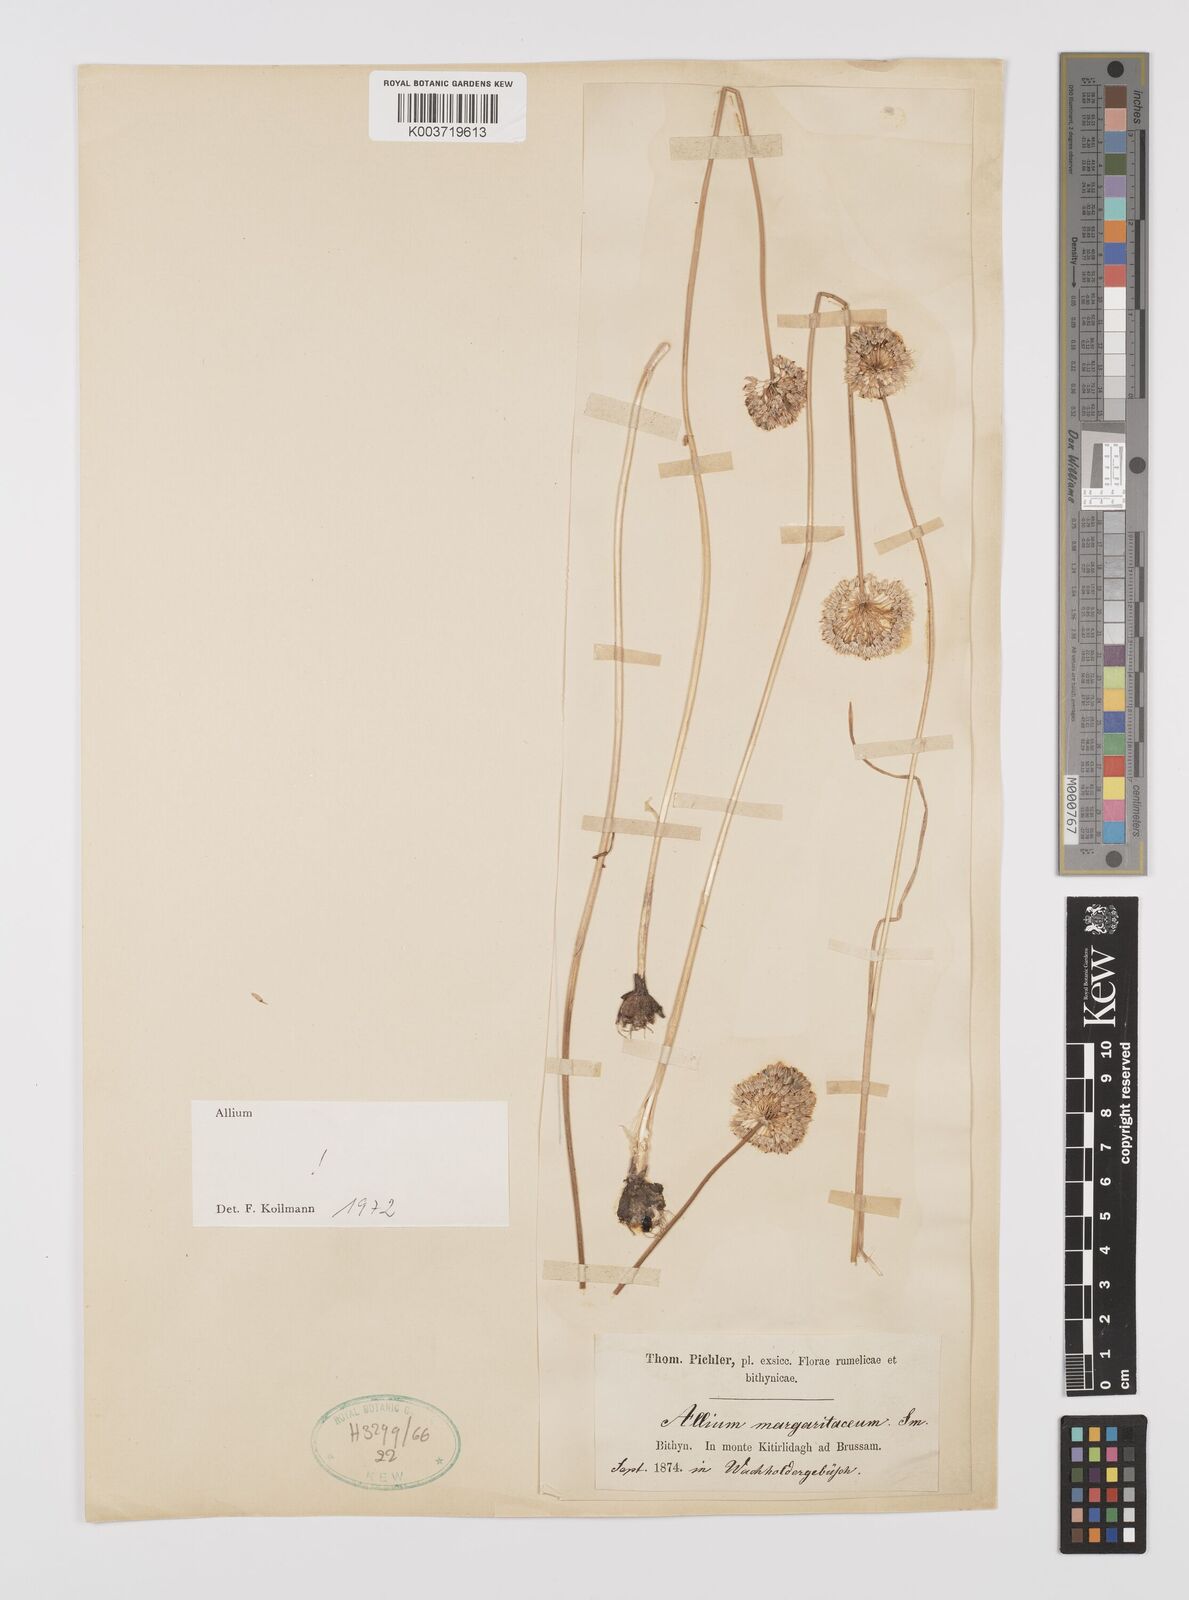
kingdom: Plantae
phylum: Tracheophyta
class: Liliopsida
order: Asparagales
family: Amaryllidaceae
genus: Allium
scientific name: Allium guttatum
